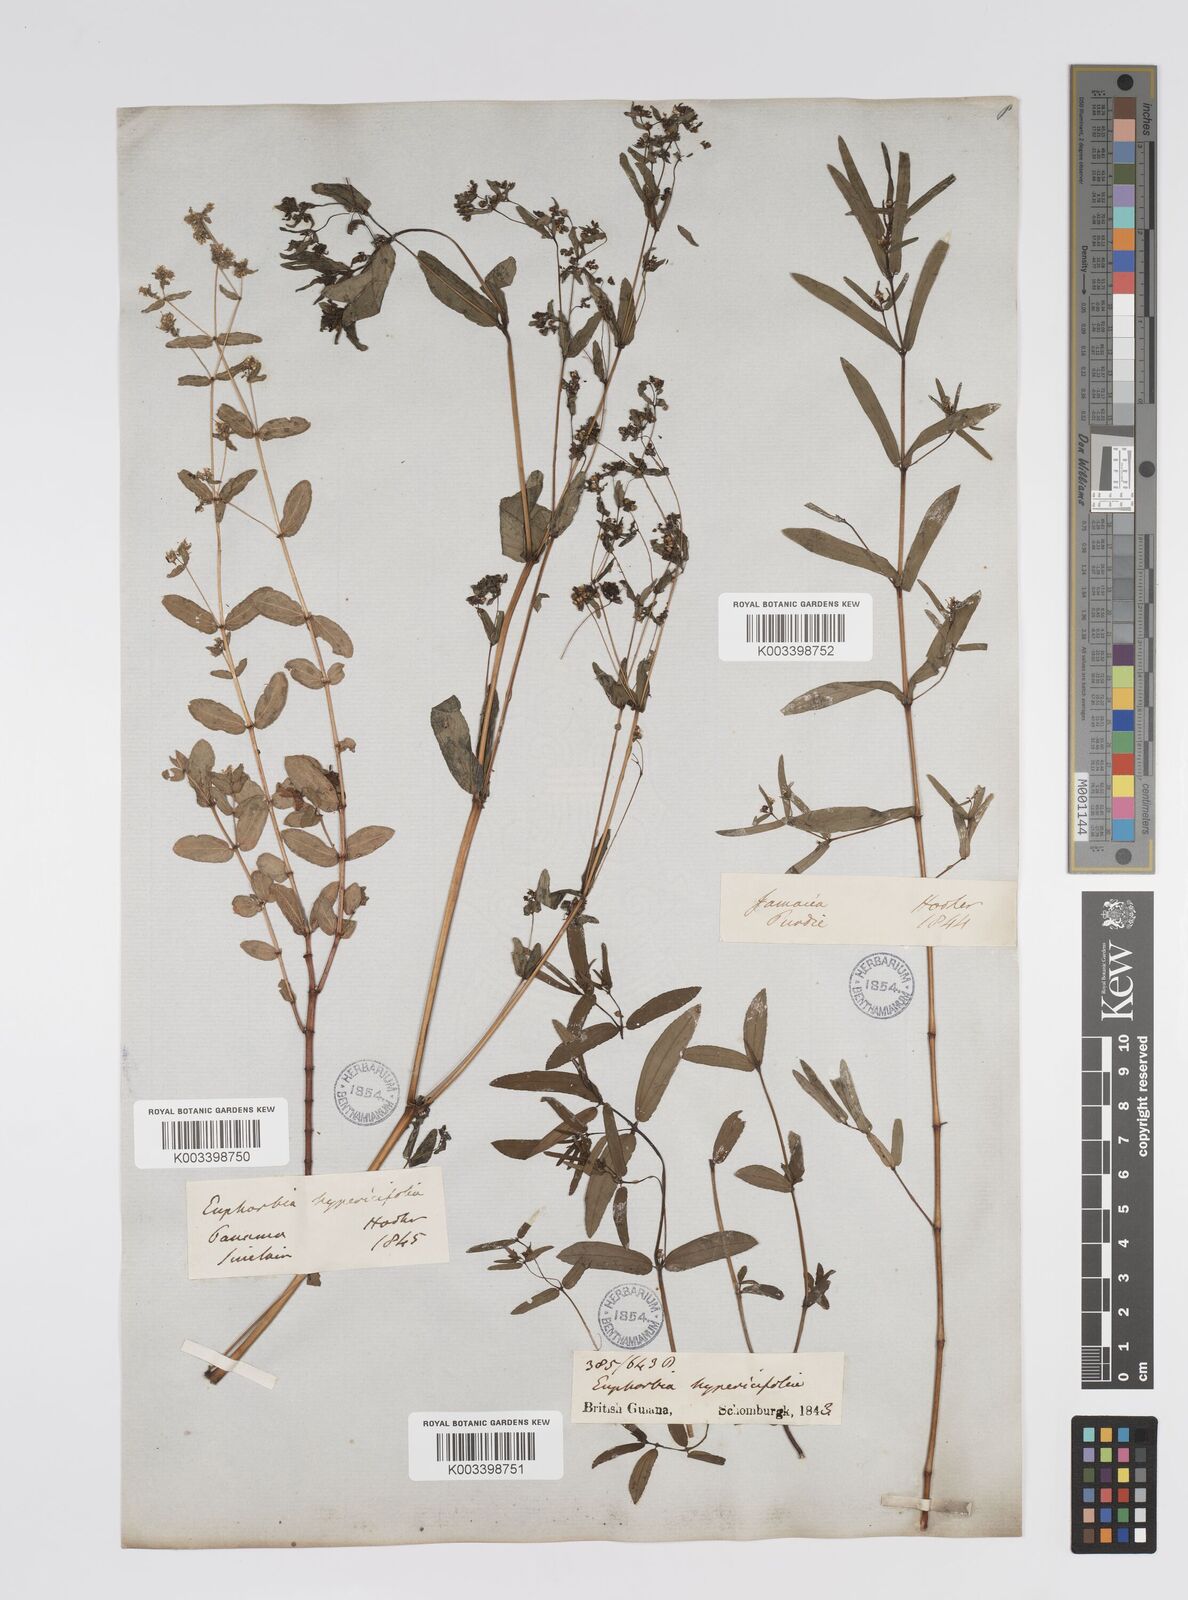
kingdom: Plantae
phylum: Tracheophyta
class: Magnoliopsida
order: Malpighiales
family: Euphorbiaceae
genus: Euphorbia
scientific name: Euphorbia
